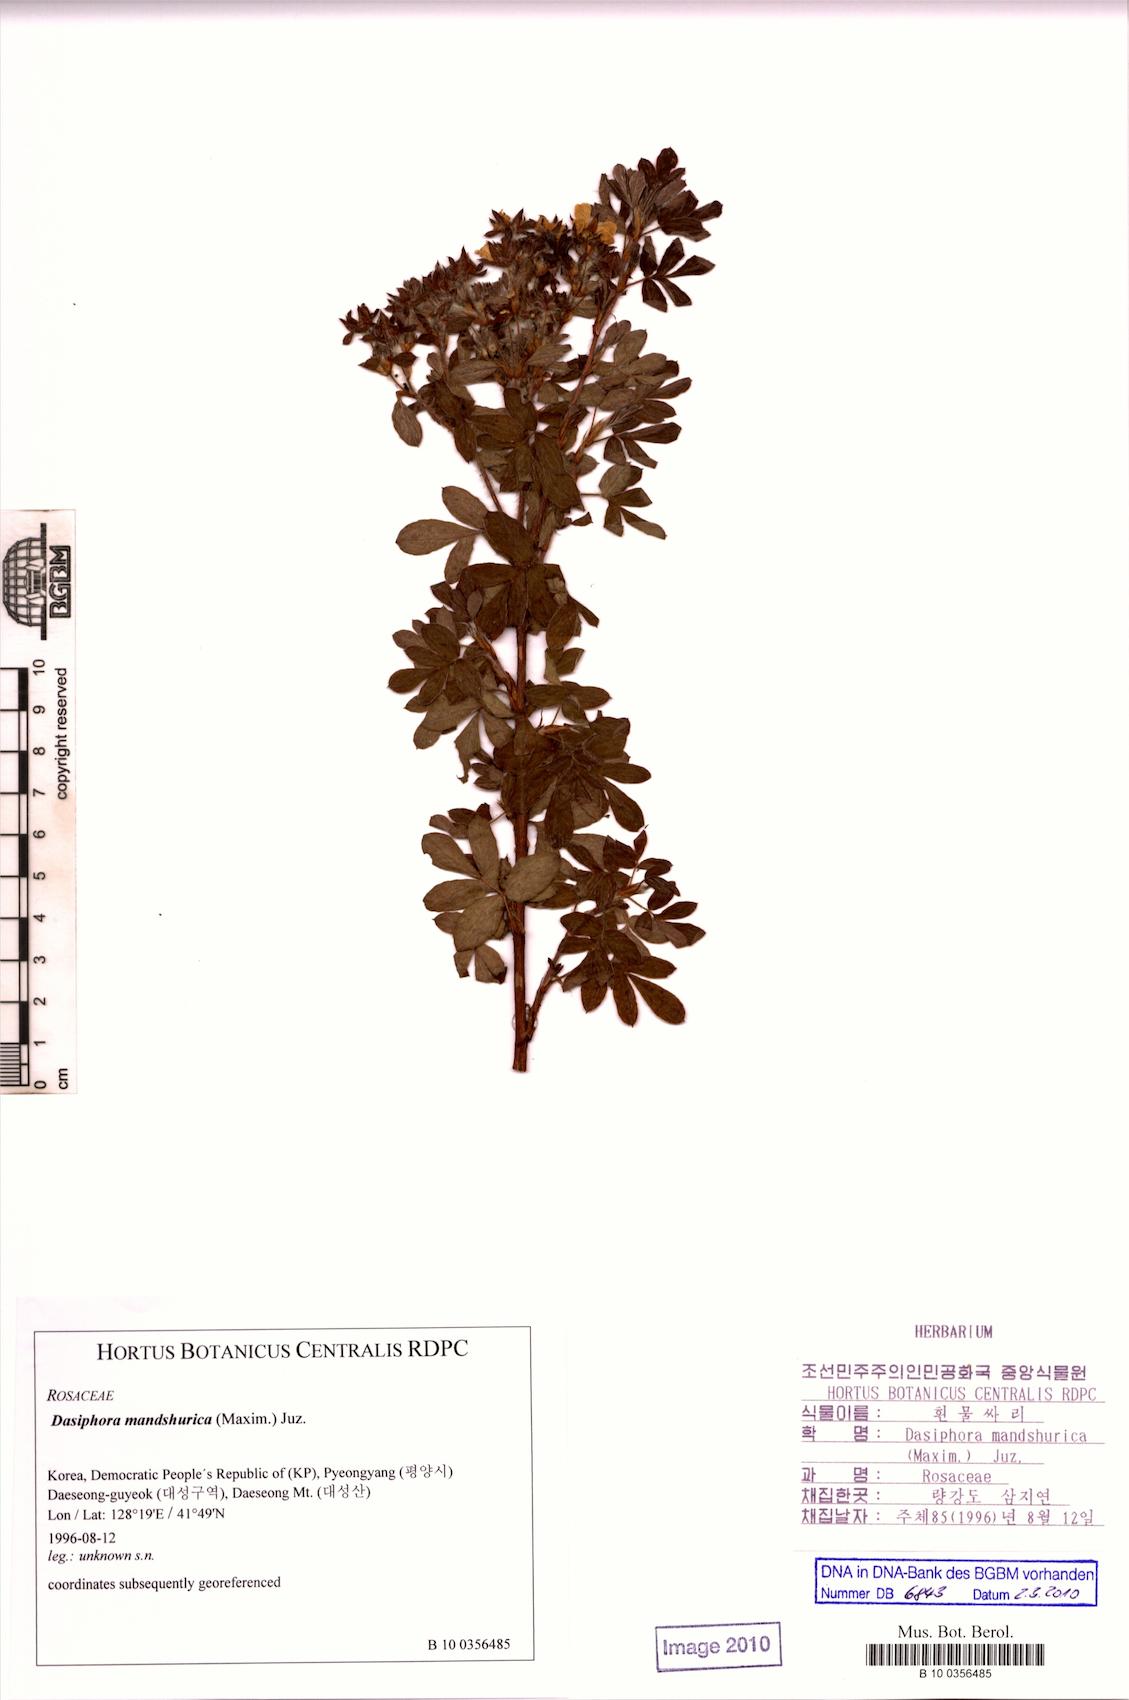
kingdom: Plantae
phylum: Tracheophyta
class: Magnoliopsida
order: Rosales
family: Rosaceae
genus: Dasiphora
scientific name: Dasiphora davurica
